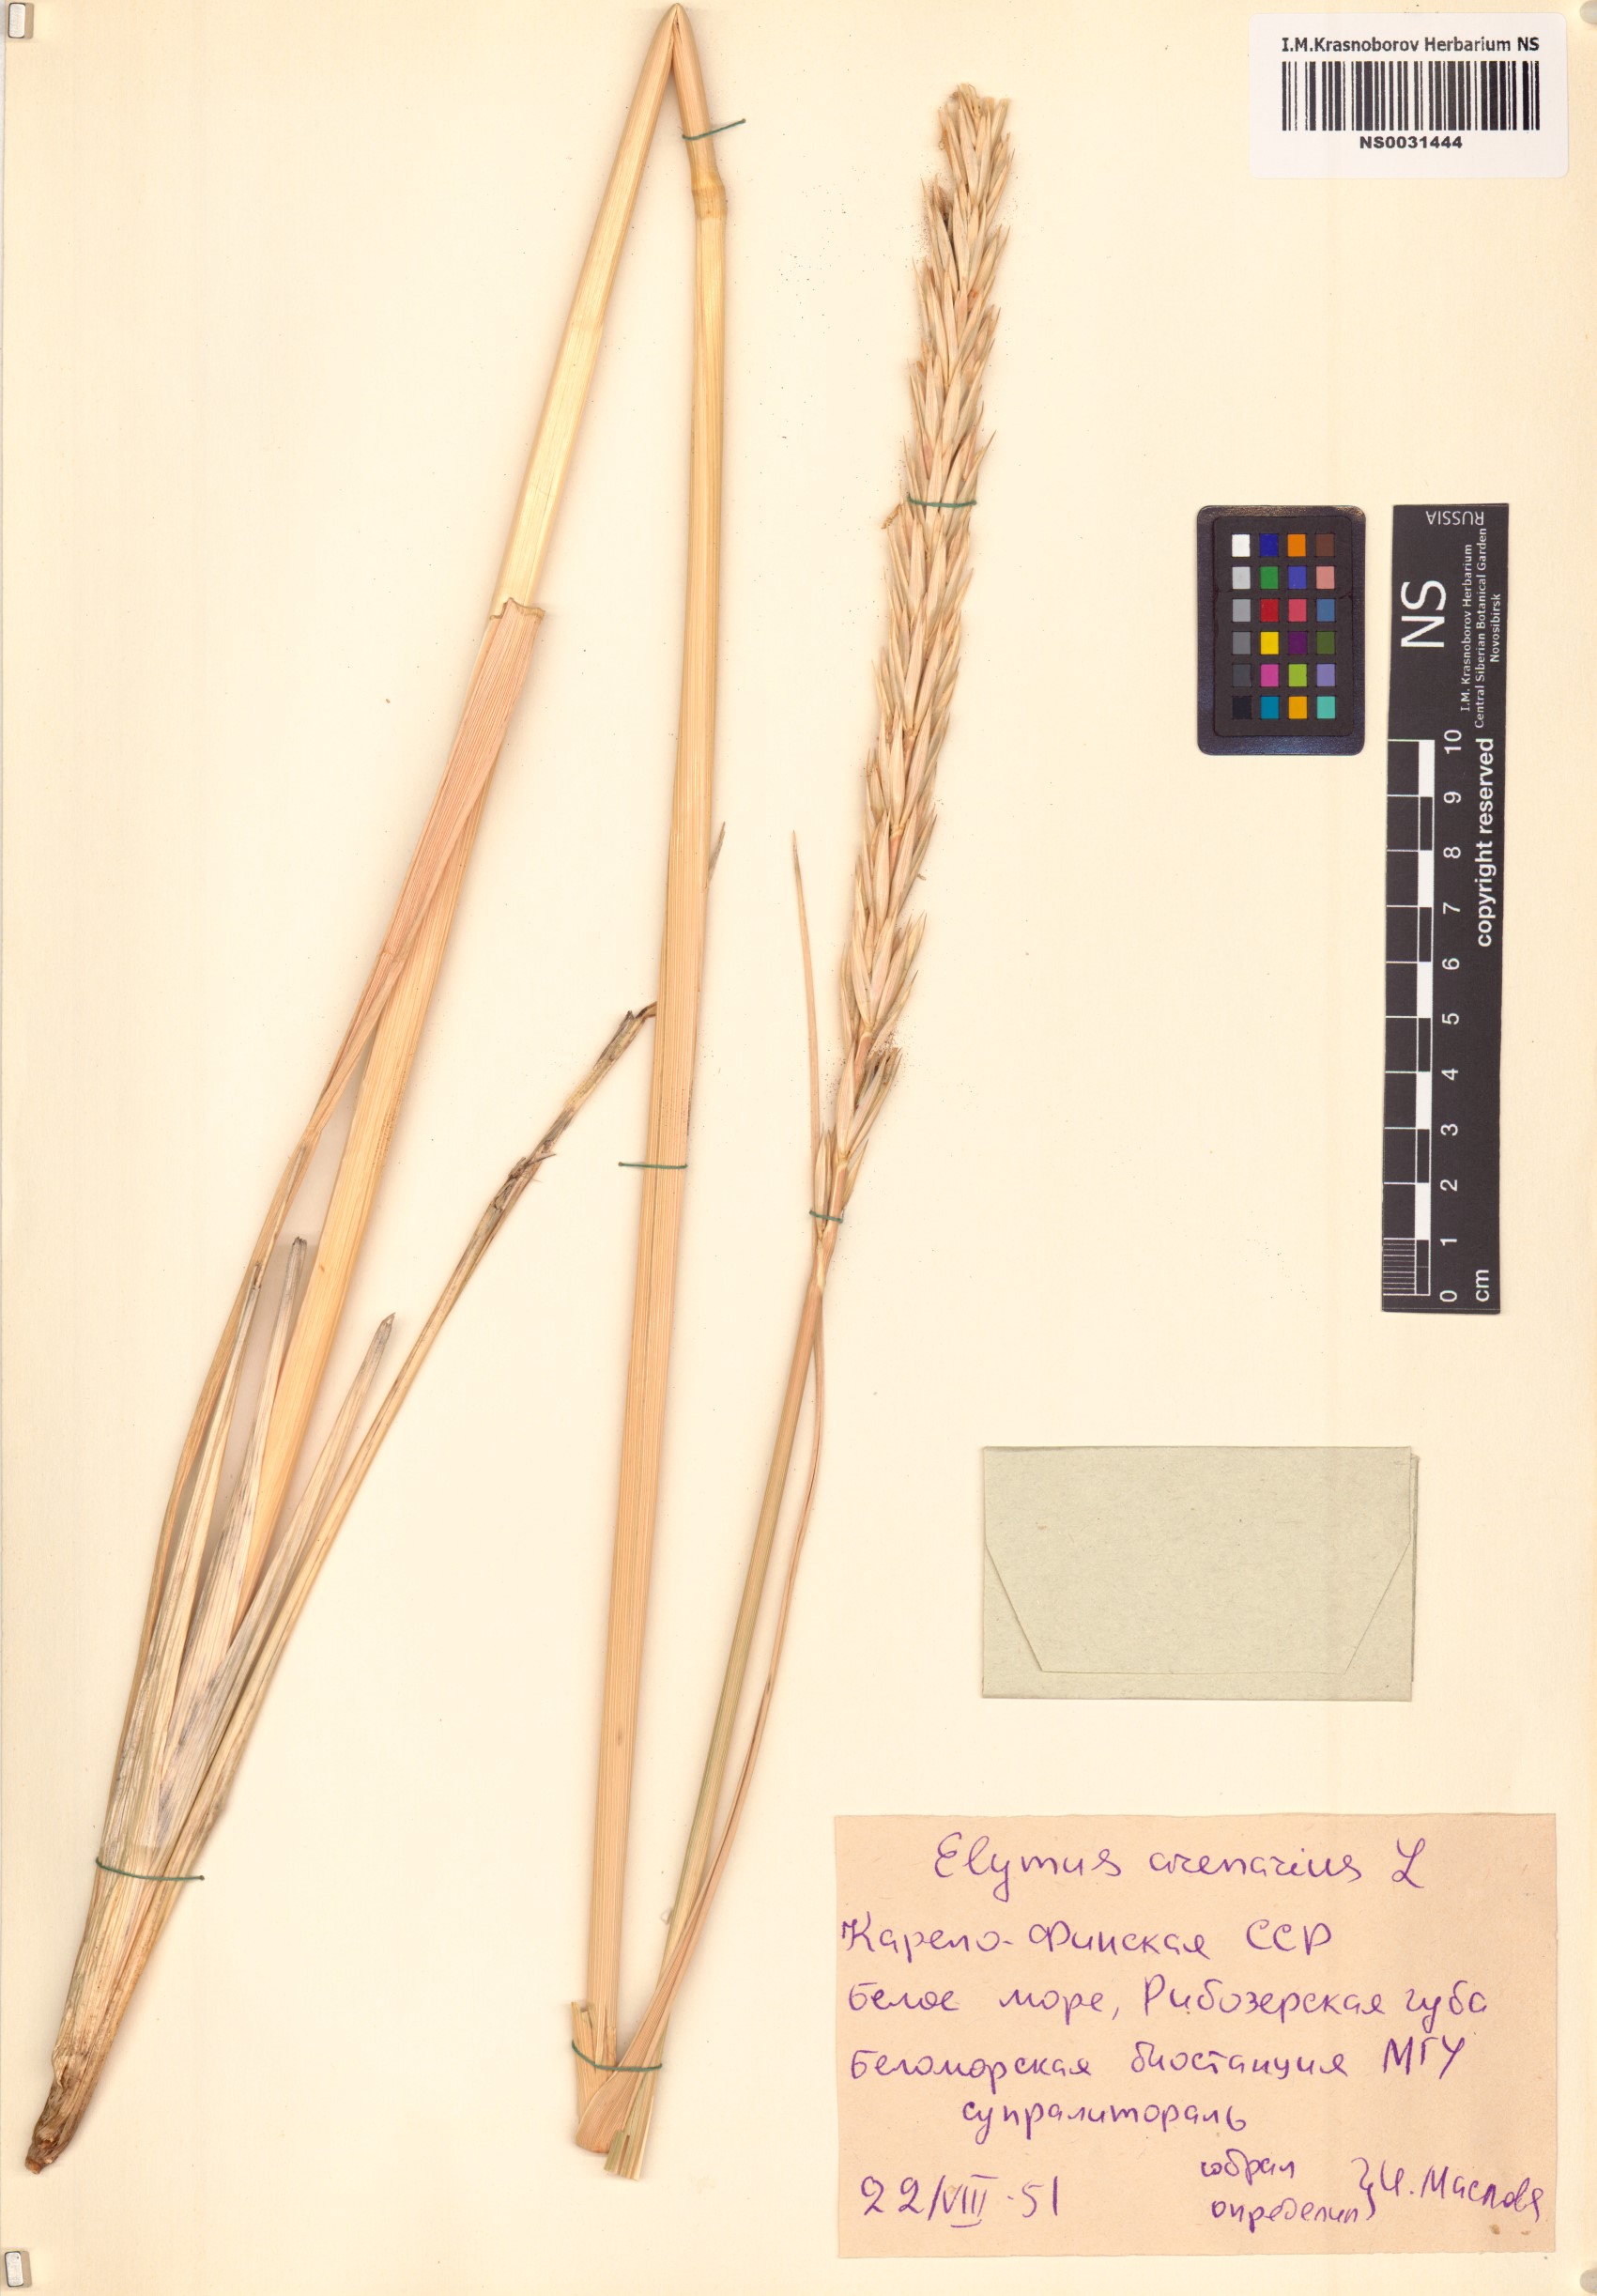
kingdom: Plantae
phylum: Tracheophyta
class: Liliopsida
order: Poales
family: Poaceae
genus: Leymus
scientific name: Leymus arenarius
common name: Lyme-grass
